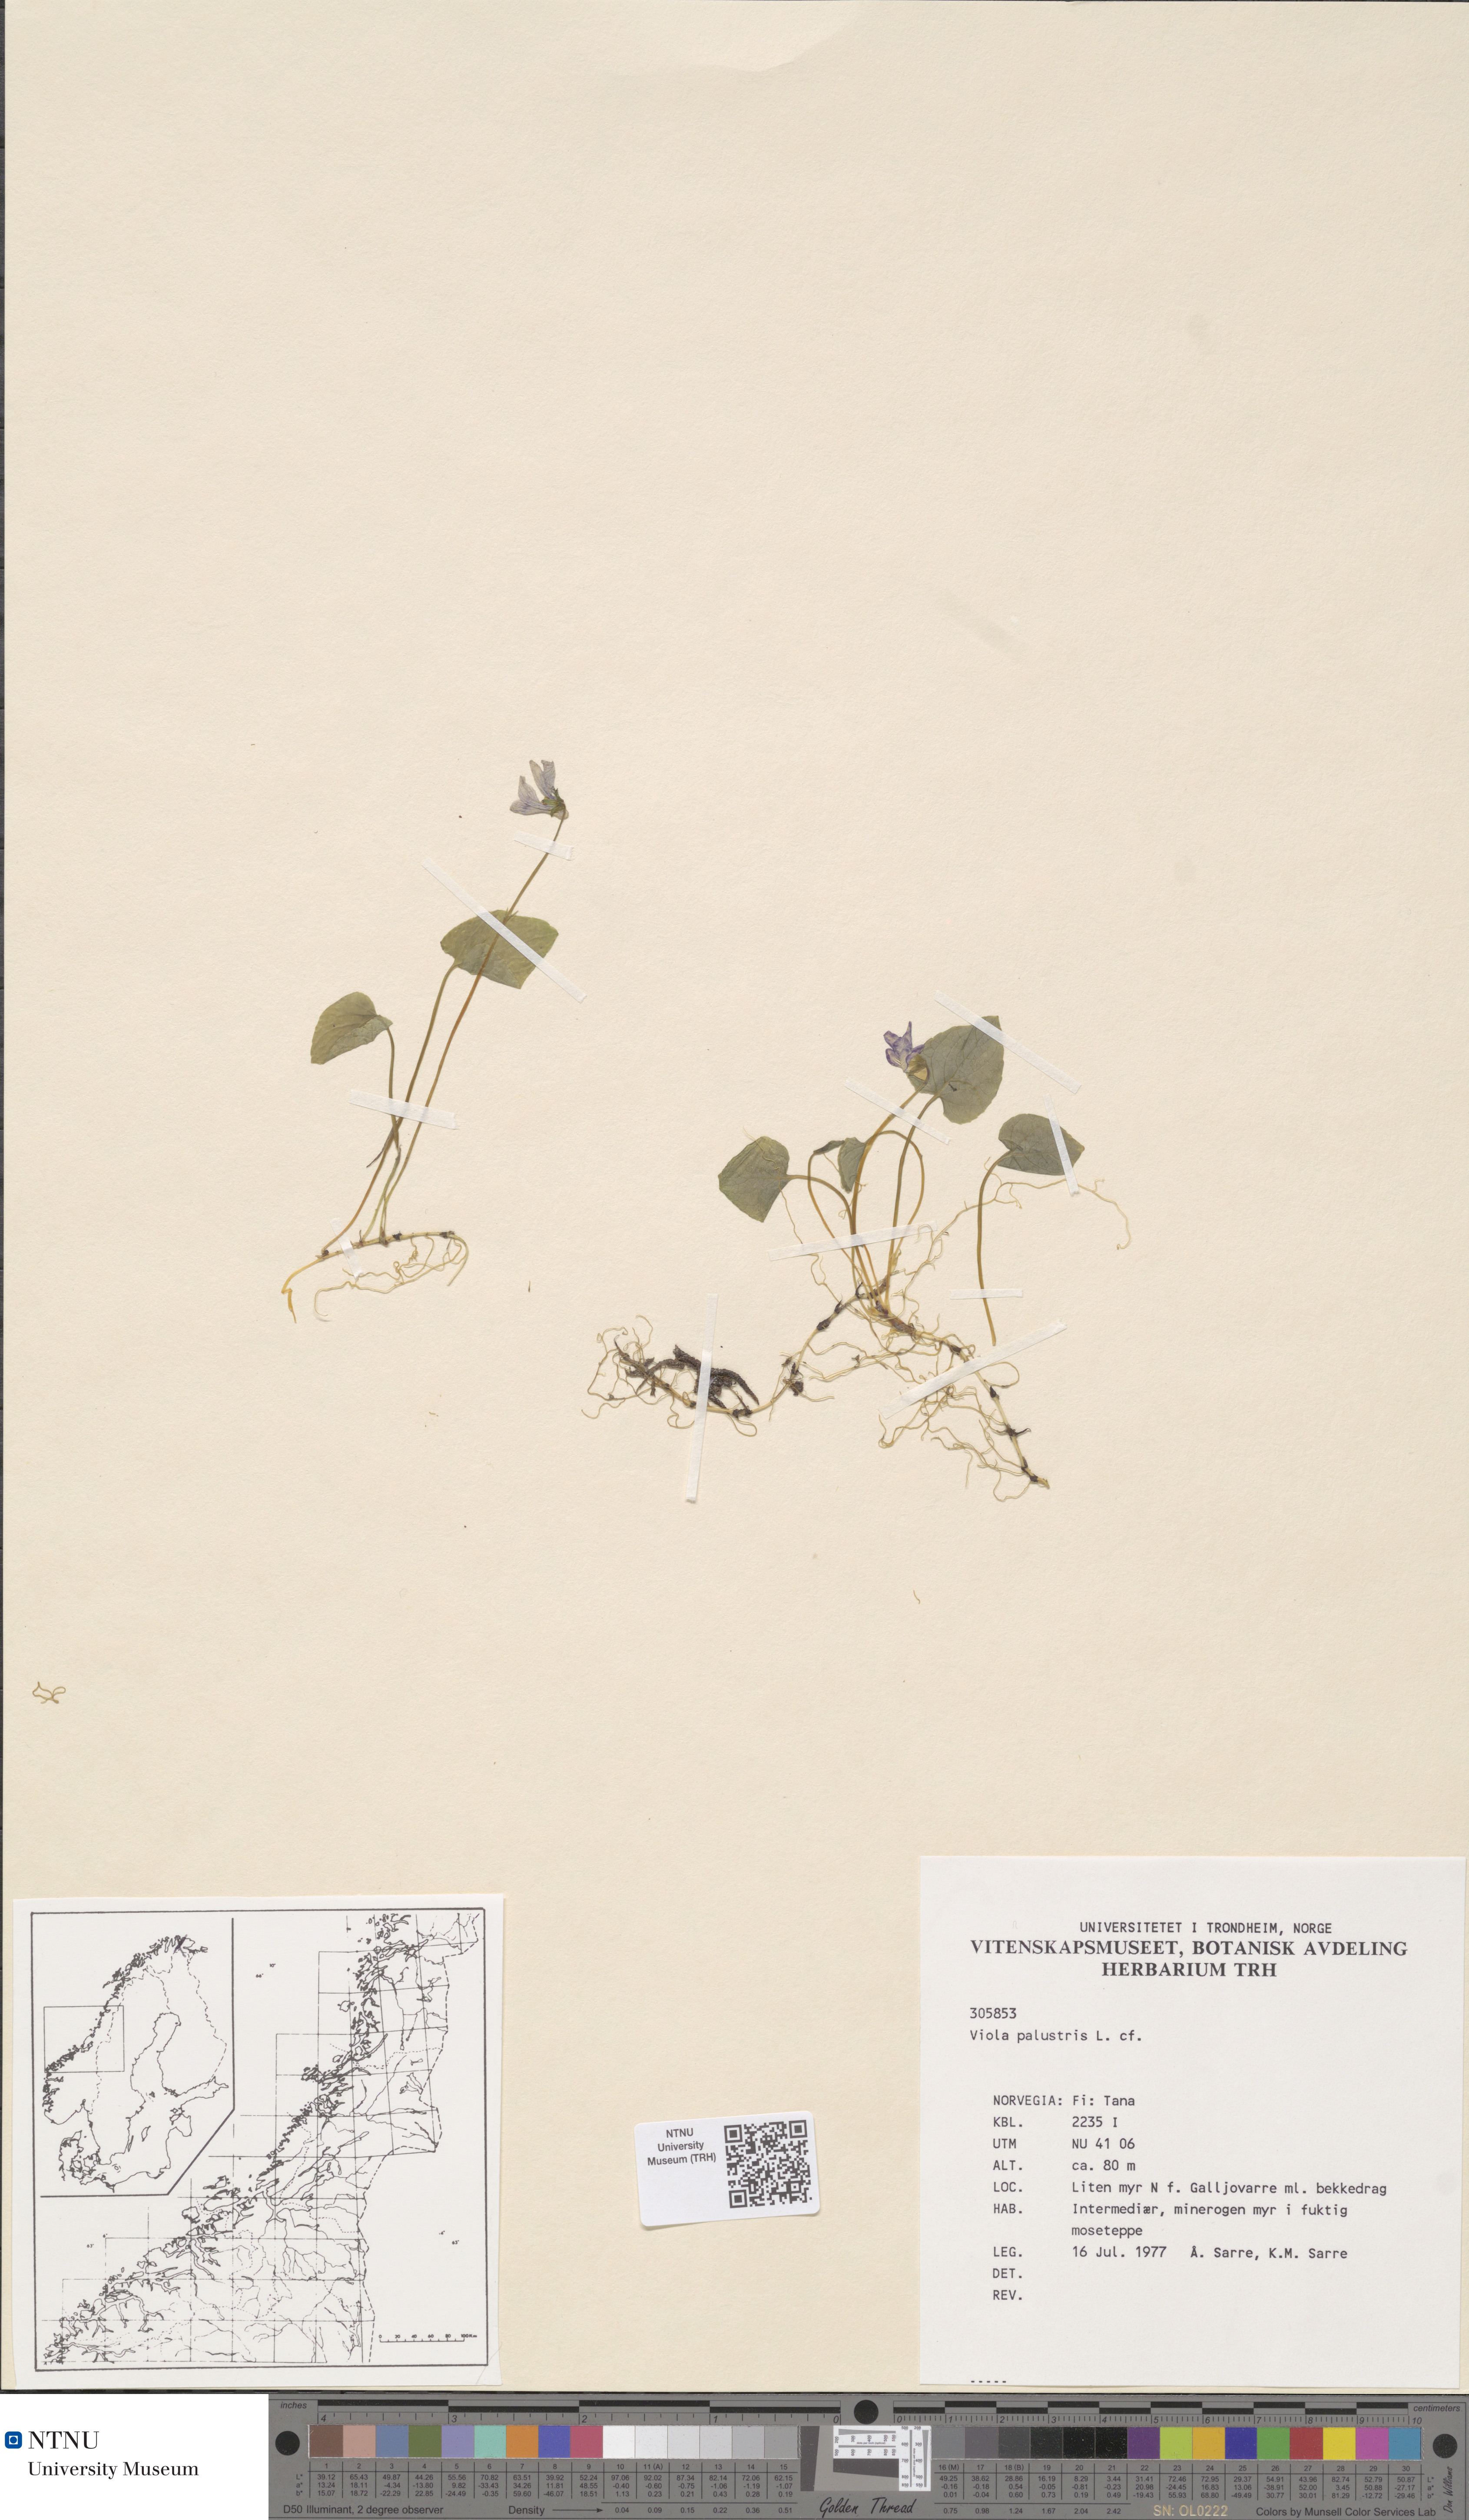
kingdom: Plantae
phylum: Tracheophyta
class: Magnoliopsida
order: Malpighiales
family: Violaceae
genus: Viola
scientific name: Viola palustris
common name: Marsh violet
